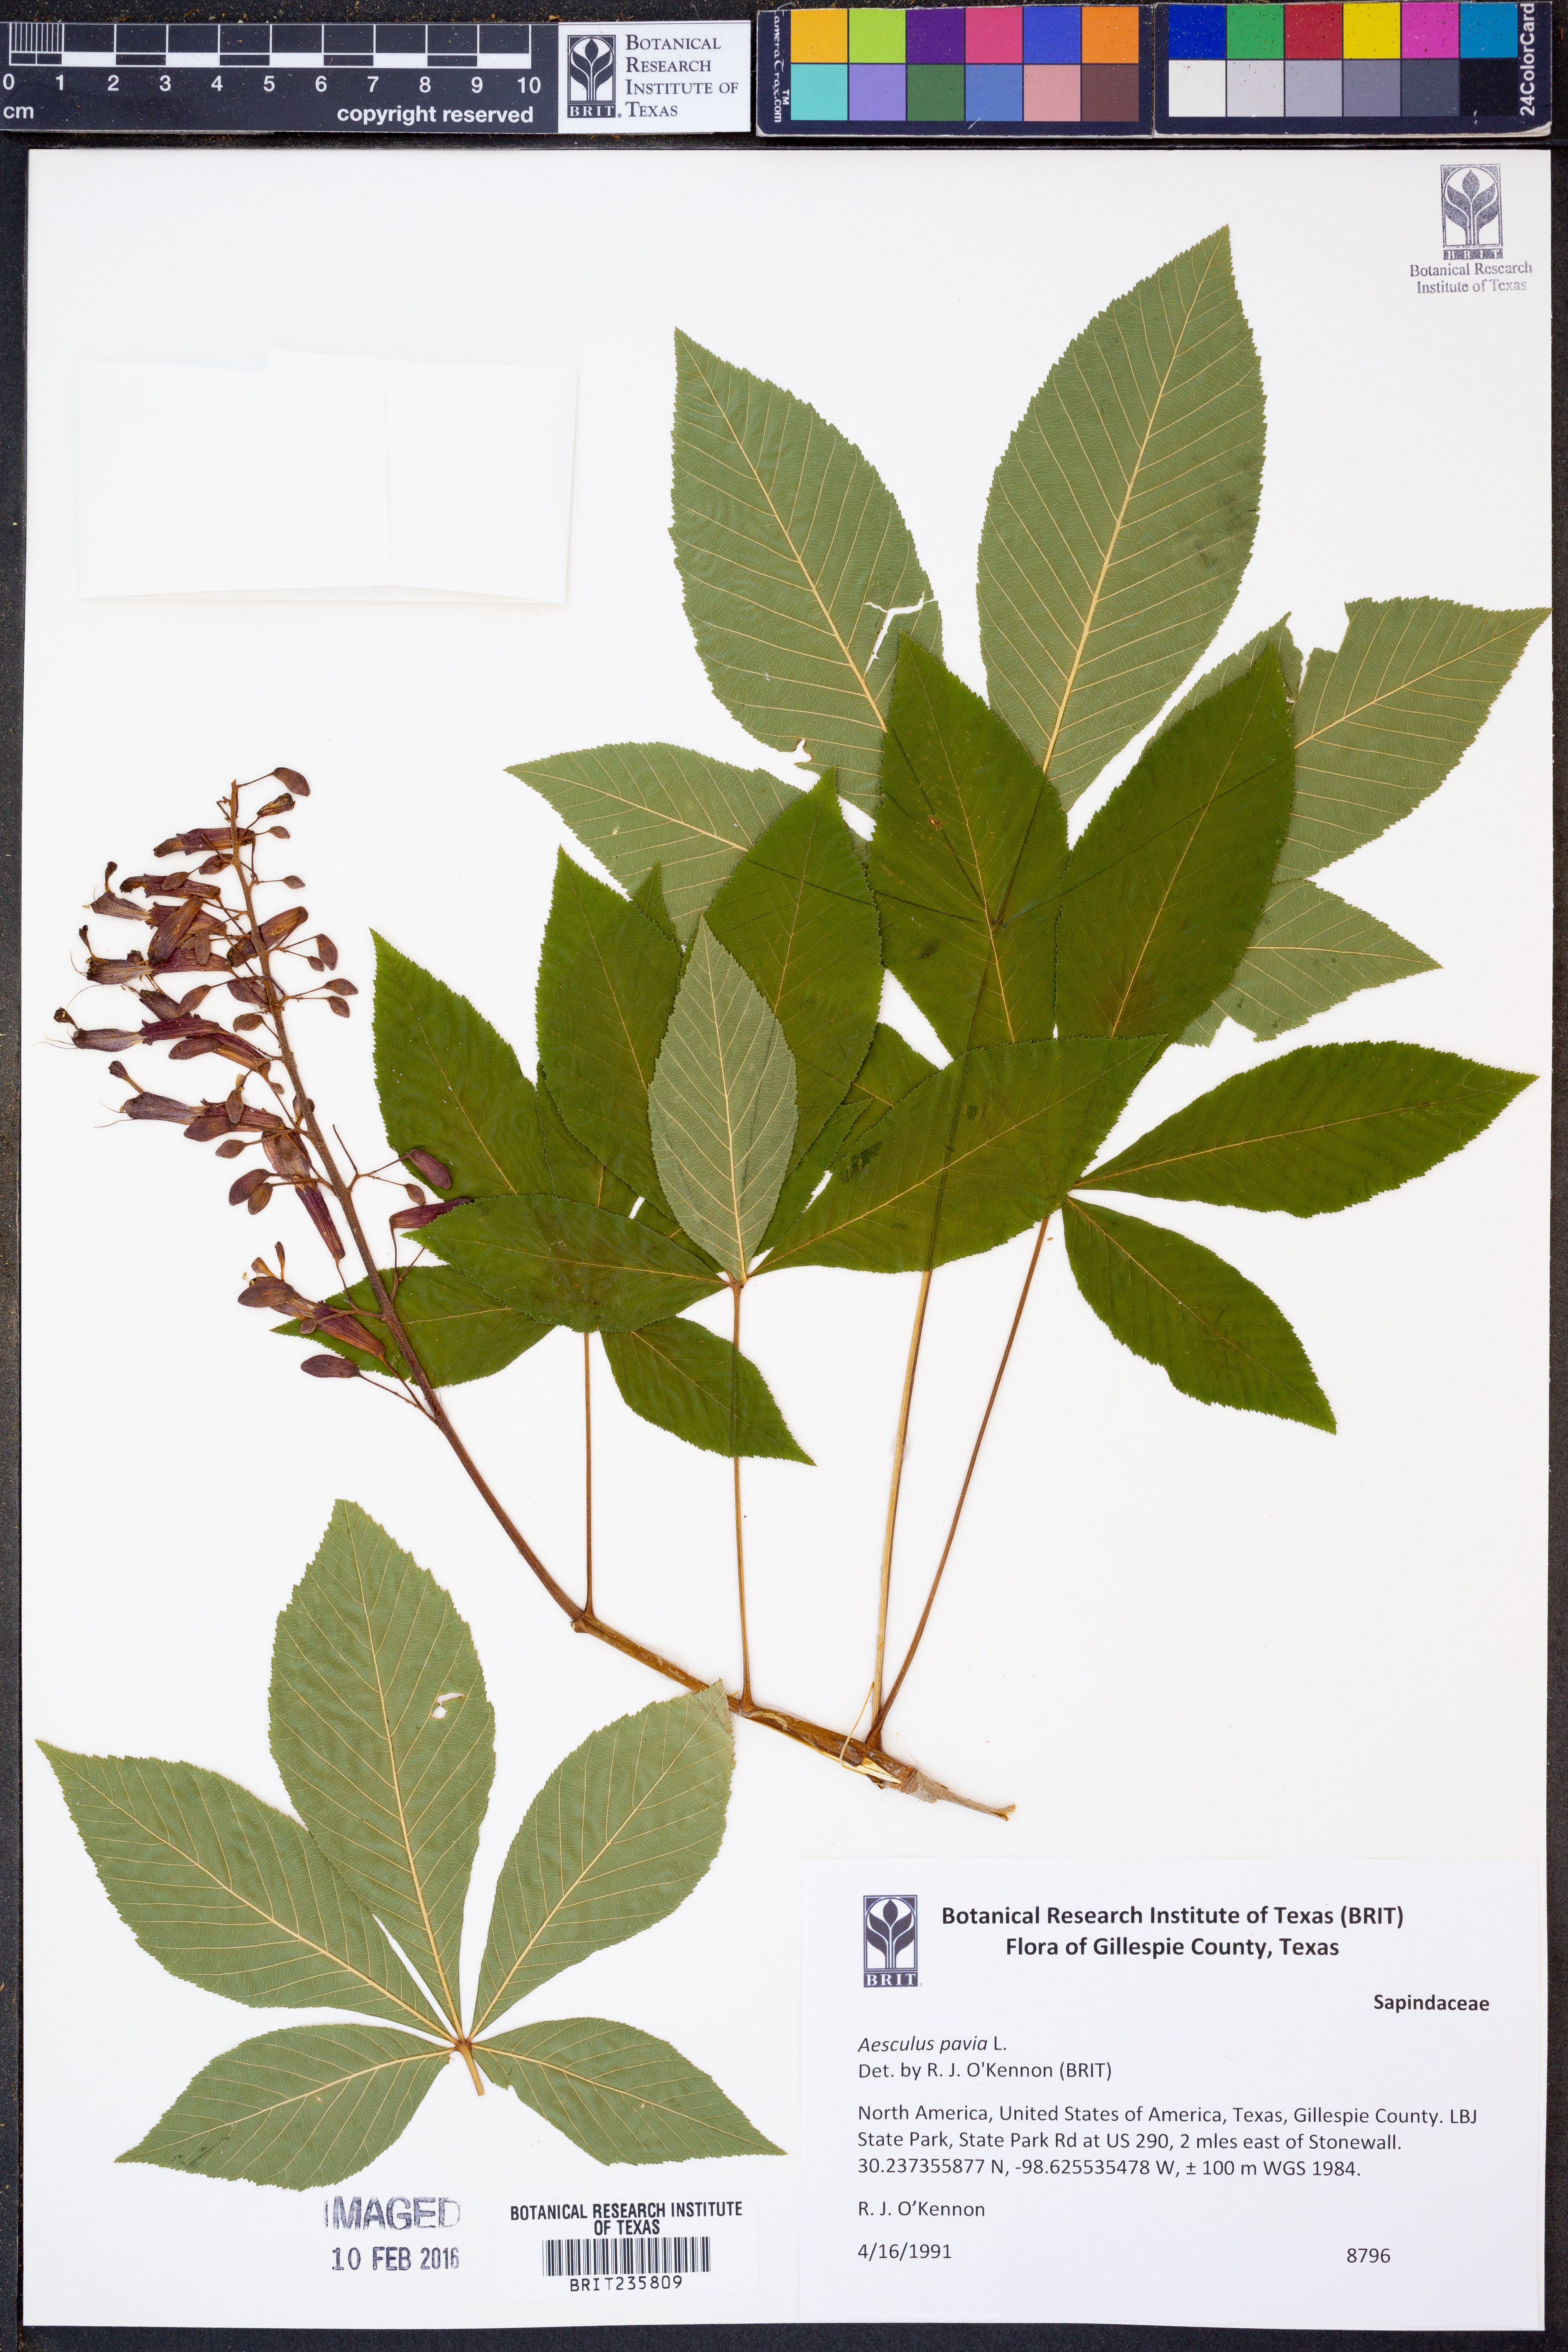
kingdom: Plantae
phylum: Tracheophyta
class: Magnoliopsida
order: Sapindales
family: Sapindaceae
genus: Aesculus
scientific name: Aesculus pavia
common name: Red buckeye
